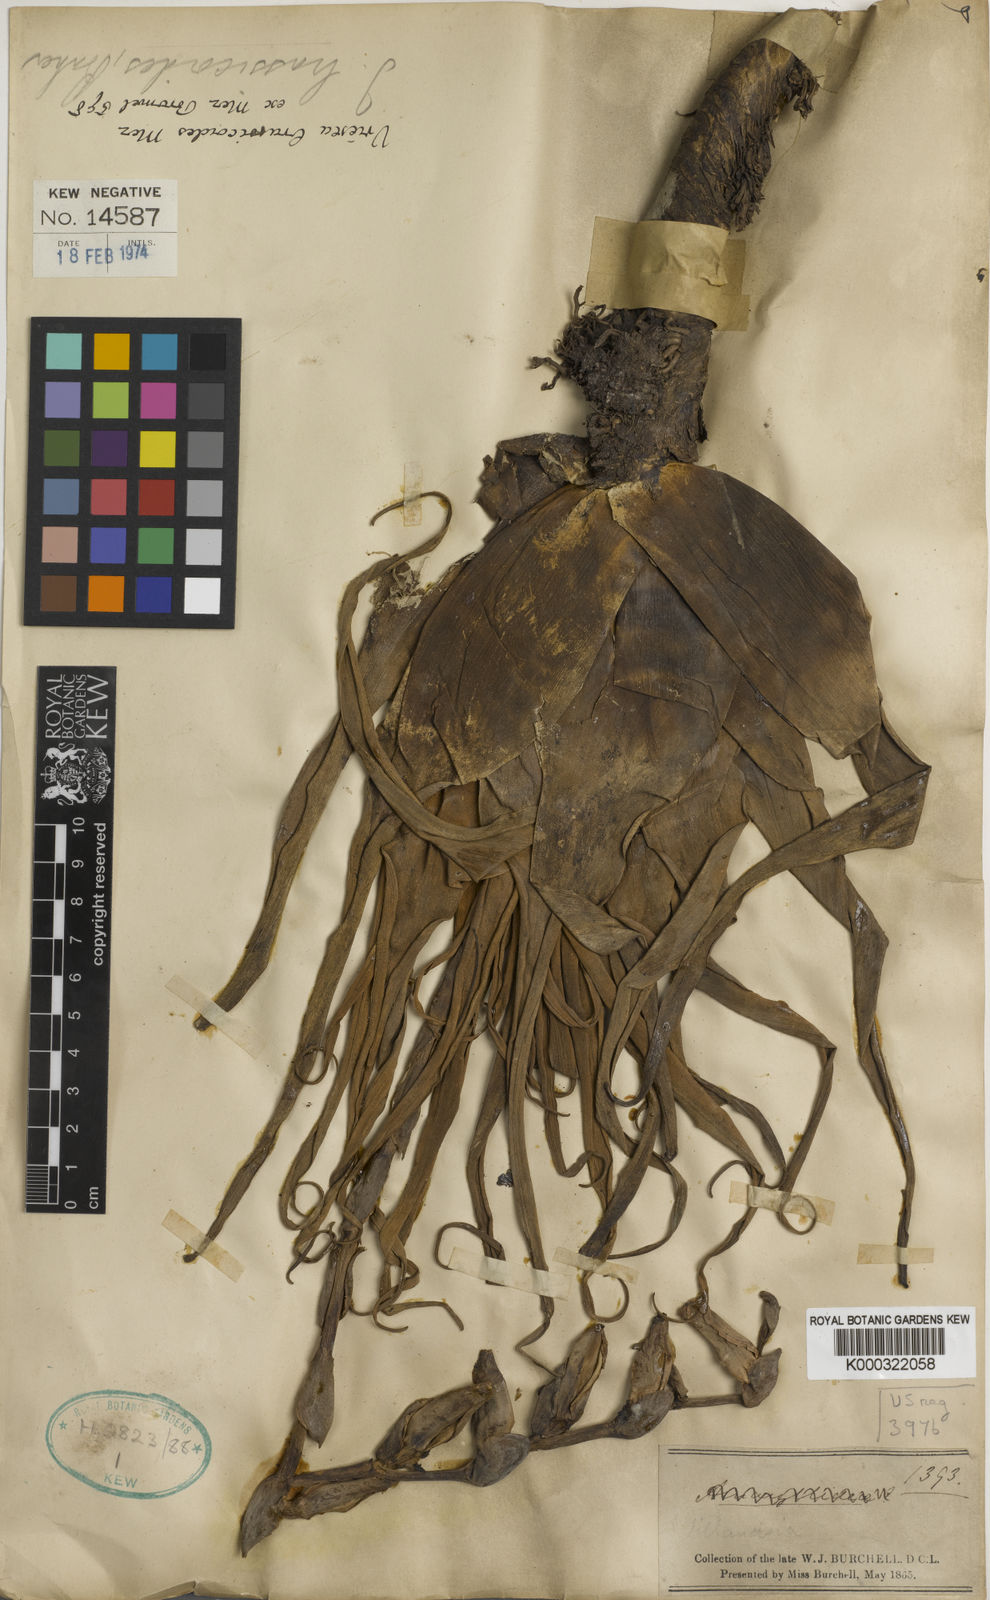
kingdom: Plantae
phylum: Tracheophyta
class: Liliopsida
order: Poales
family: Bromeliaceae
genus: Stigmatodon
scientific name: Stigmatodon brassicoides
